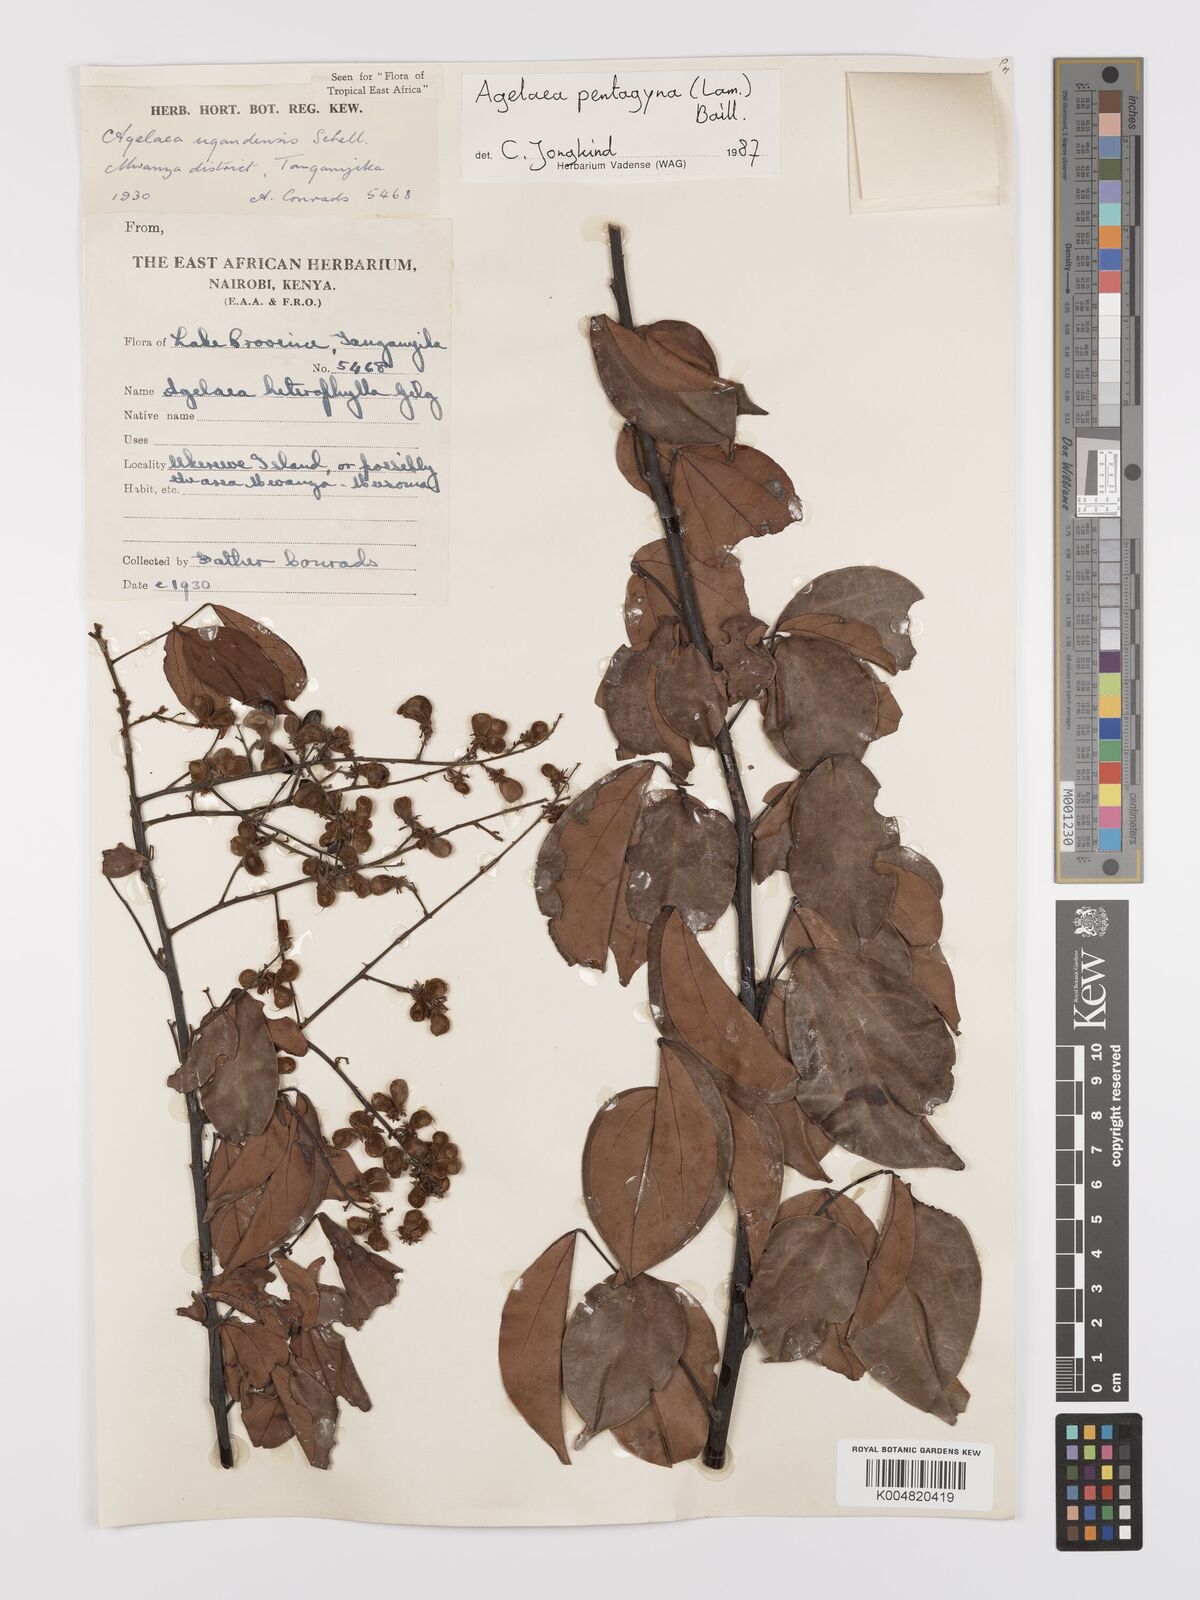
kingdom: Plantae
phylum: Tracheophyta
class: Magnoliopsida
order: Oxalidales
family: Connaraceae
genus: Agelaea
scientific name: Agelaea pentagyna
